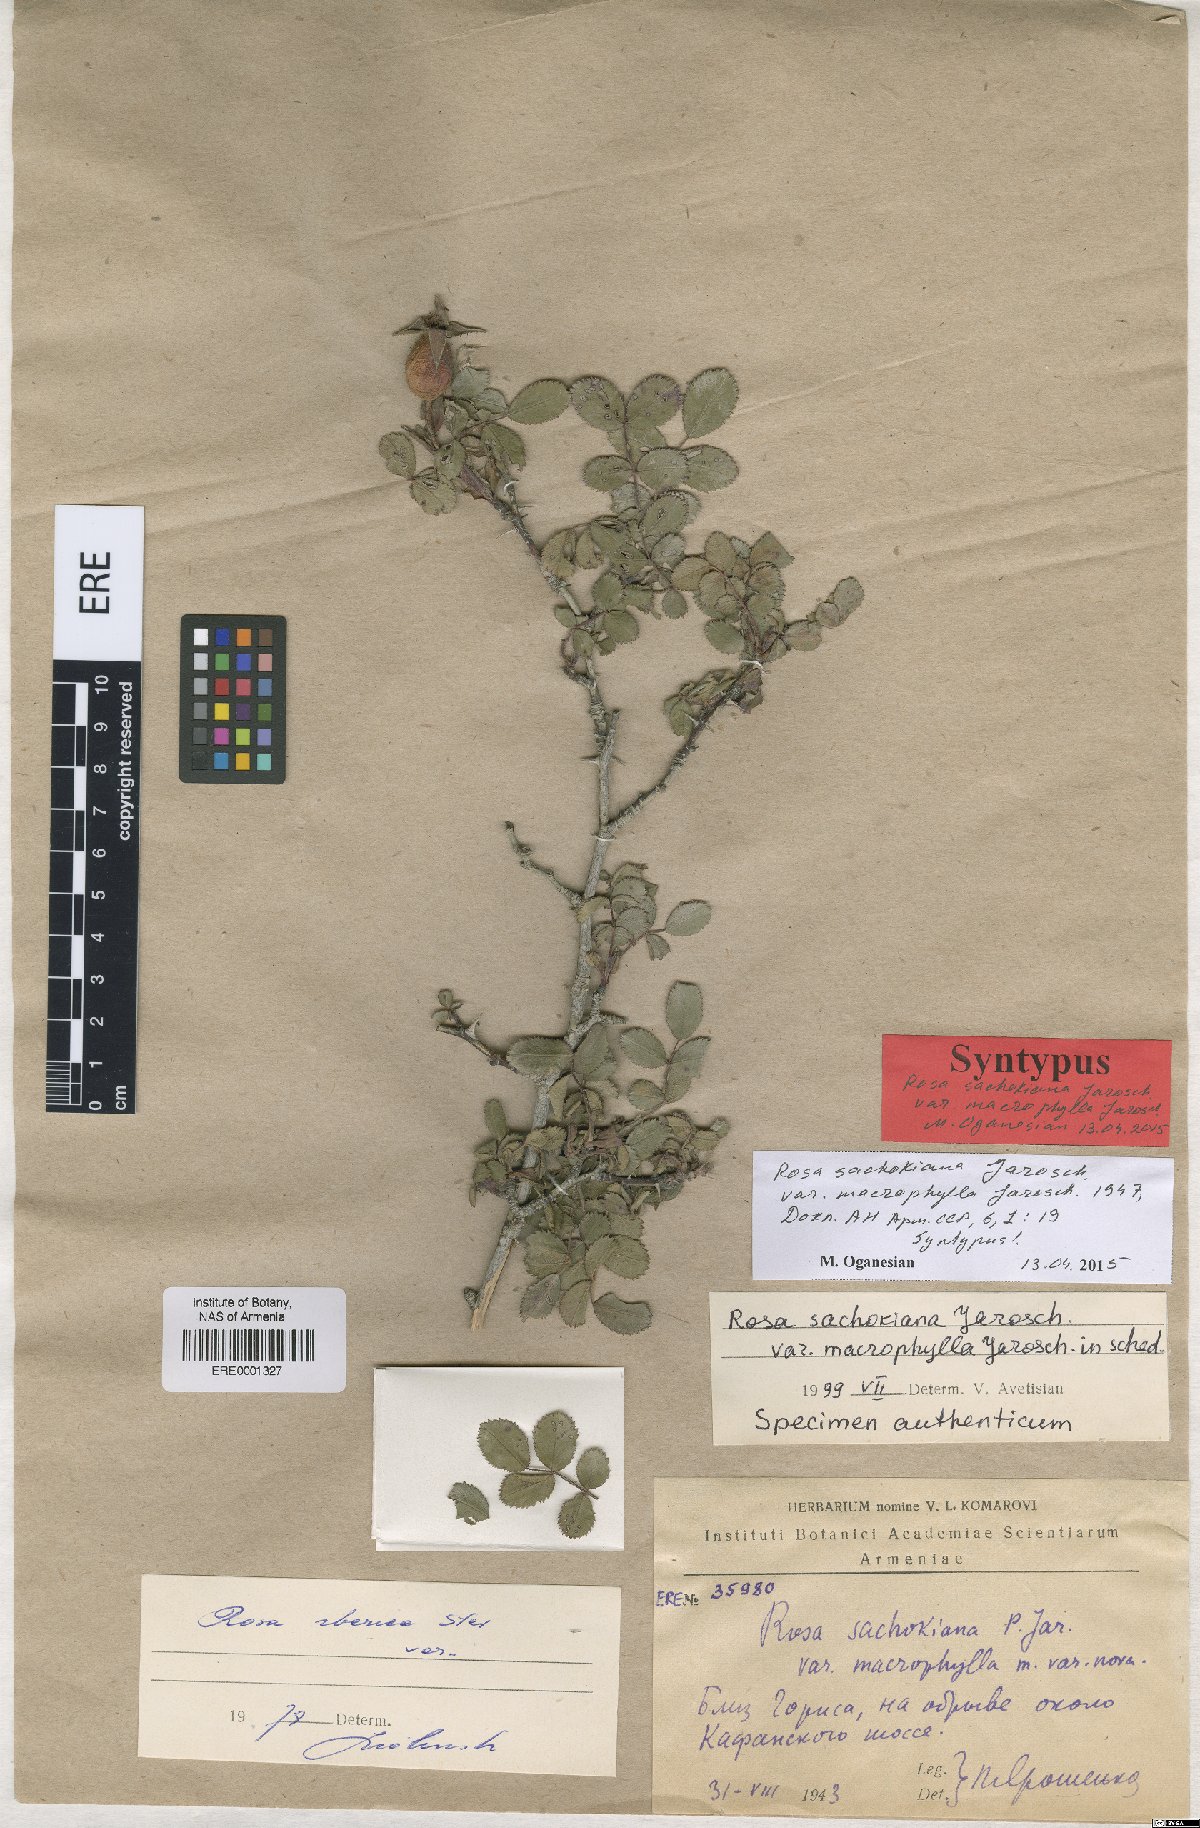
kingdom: Plantae
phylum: Tracheophyta
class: Magnoliopsida
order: Rosales
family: Rosaceae
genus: Rosa
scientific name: Rosa pulverulenta
